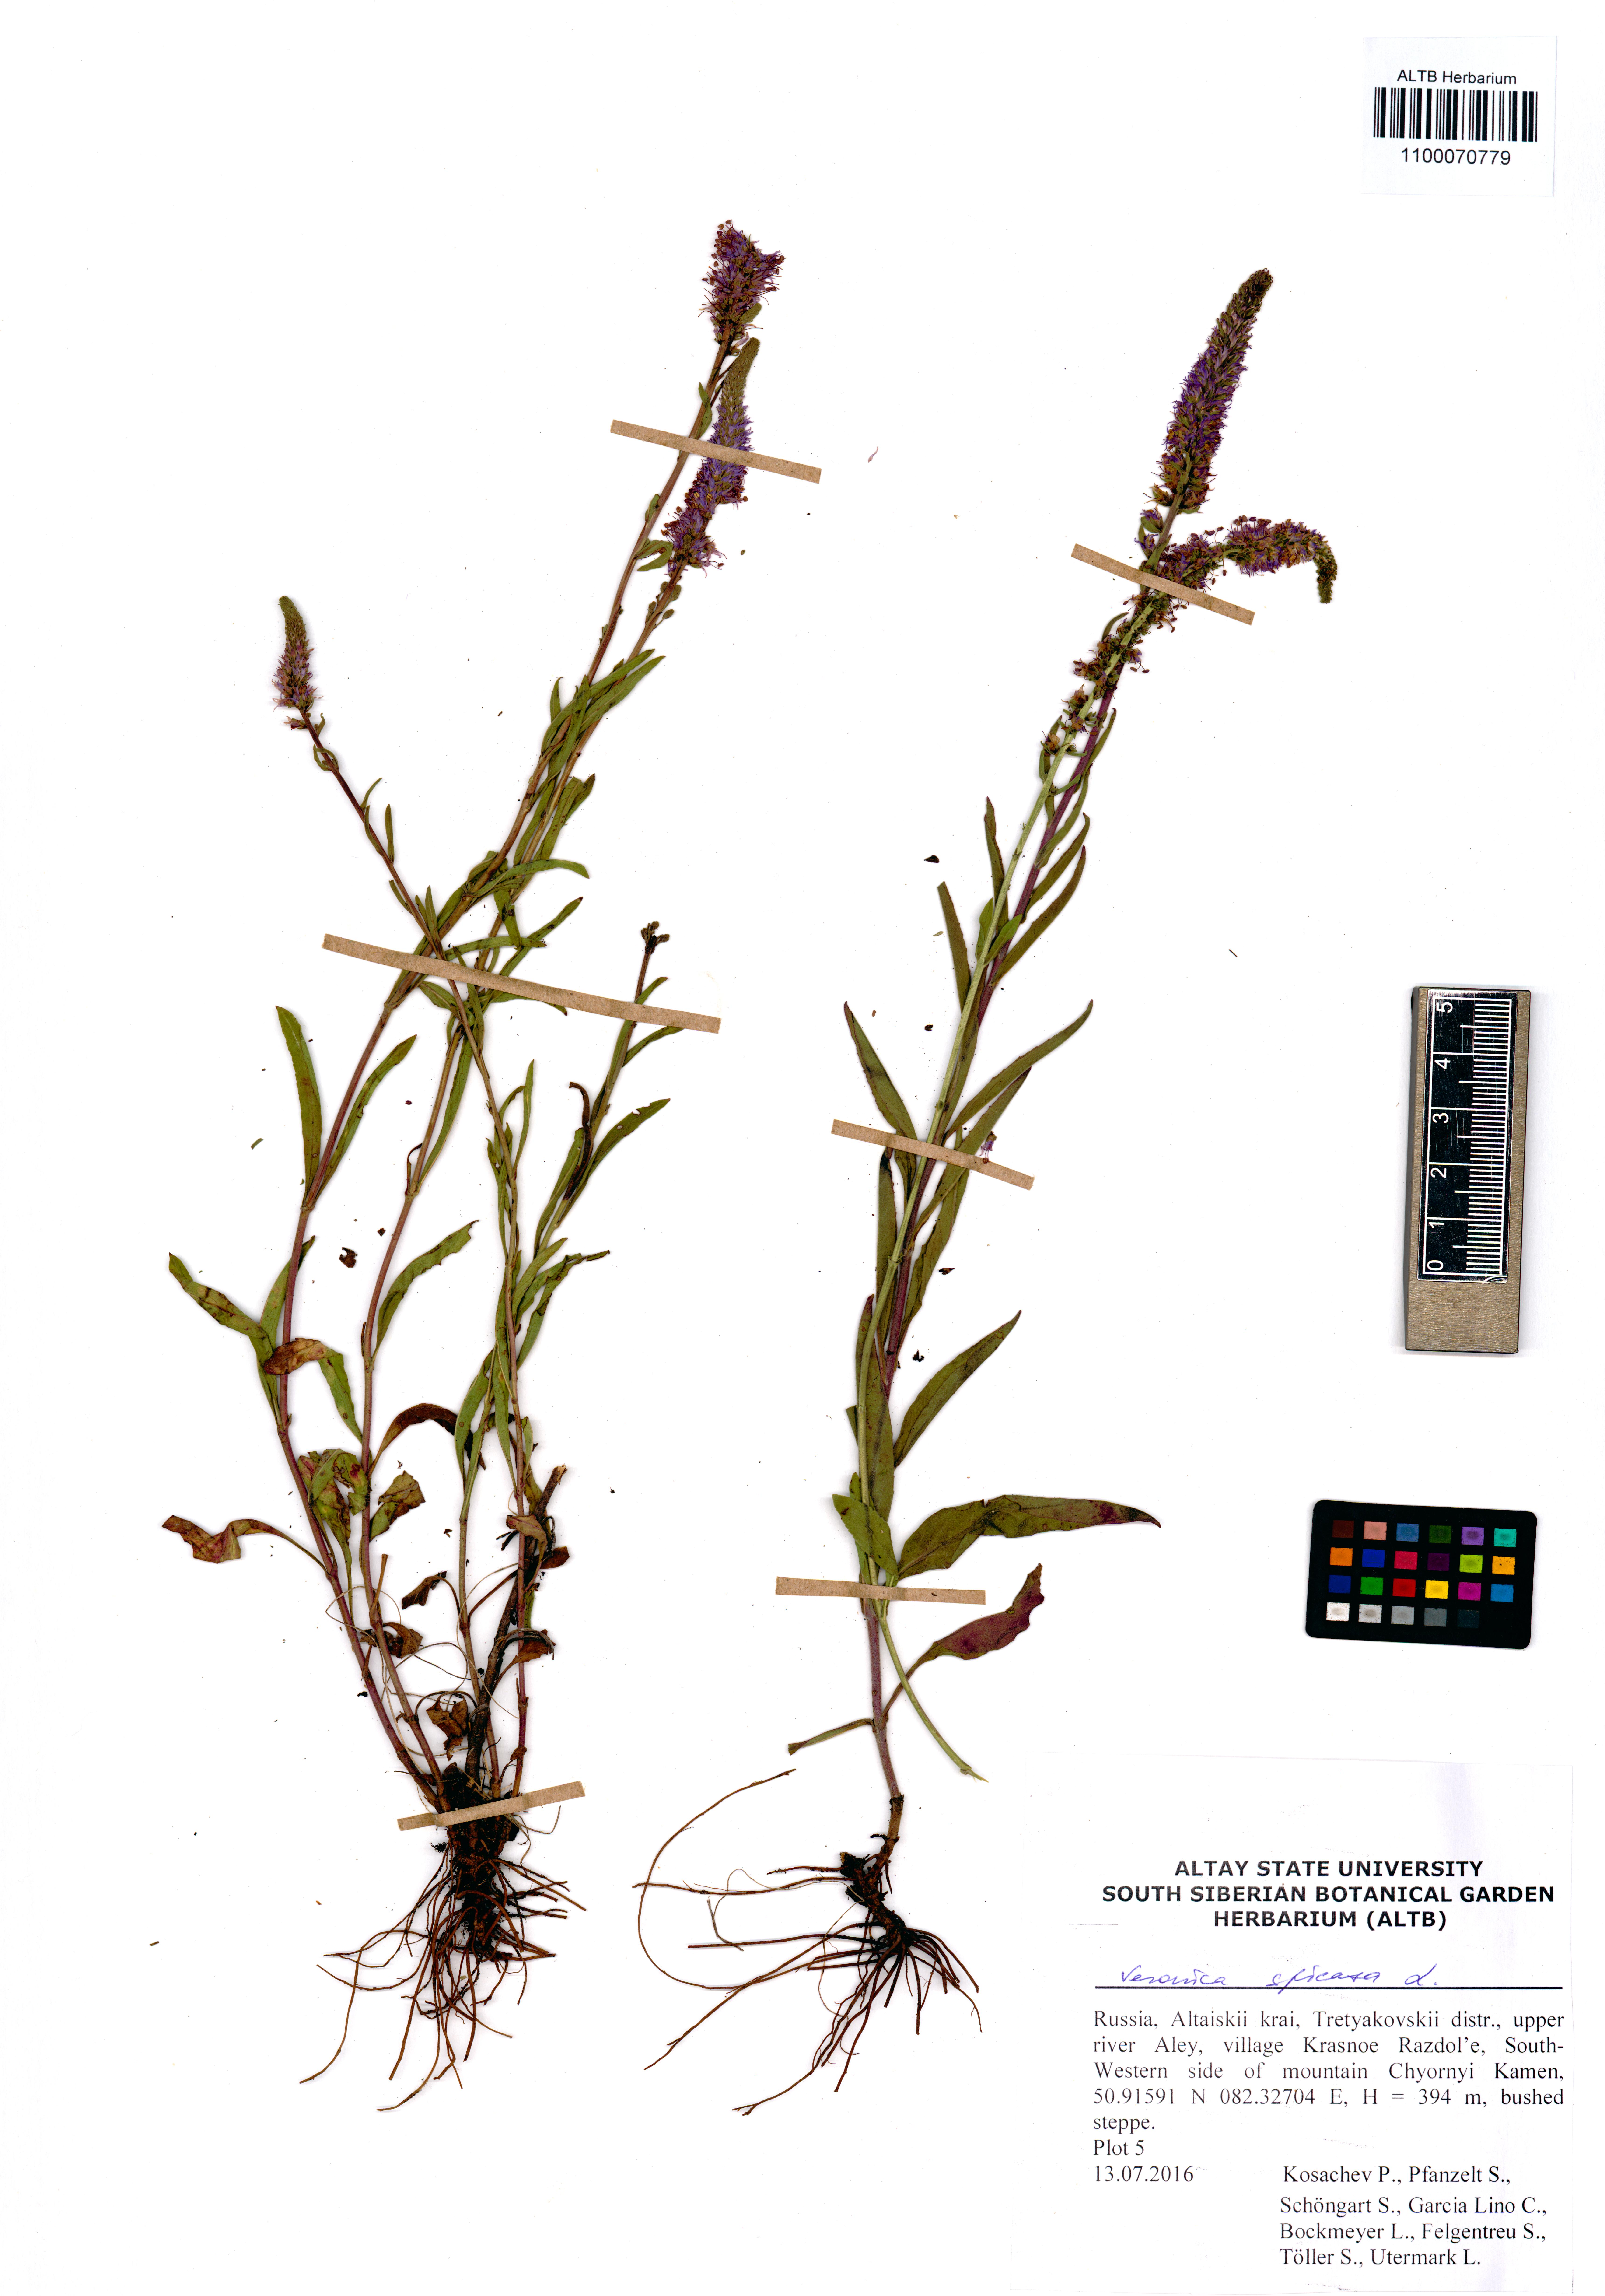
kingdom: Plantae
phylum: Tracheophyta
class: Magnoliopsida
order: Lamiales
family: Plantaginaceae
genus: Veronica
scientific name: Veronica spicata
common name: Spiked speedwell
